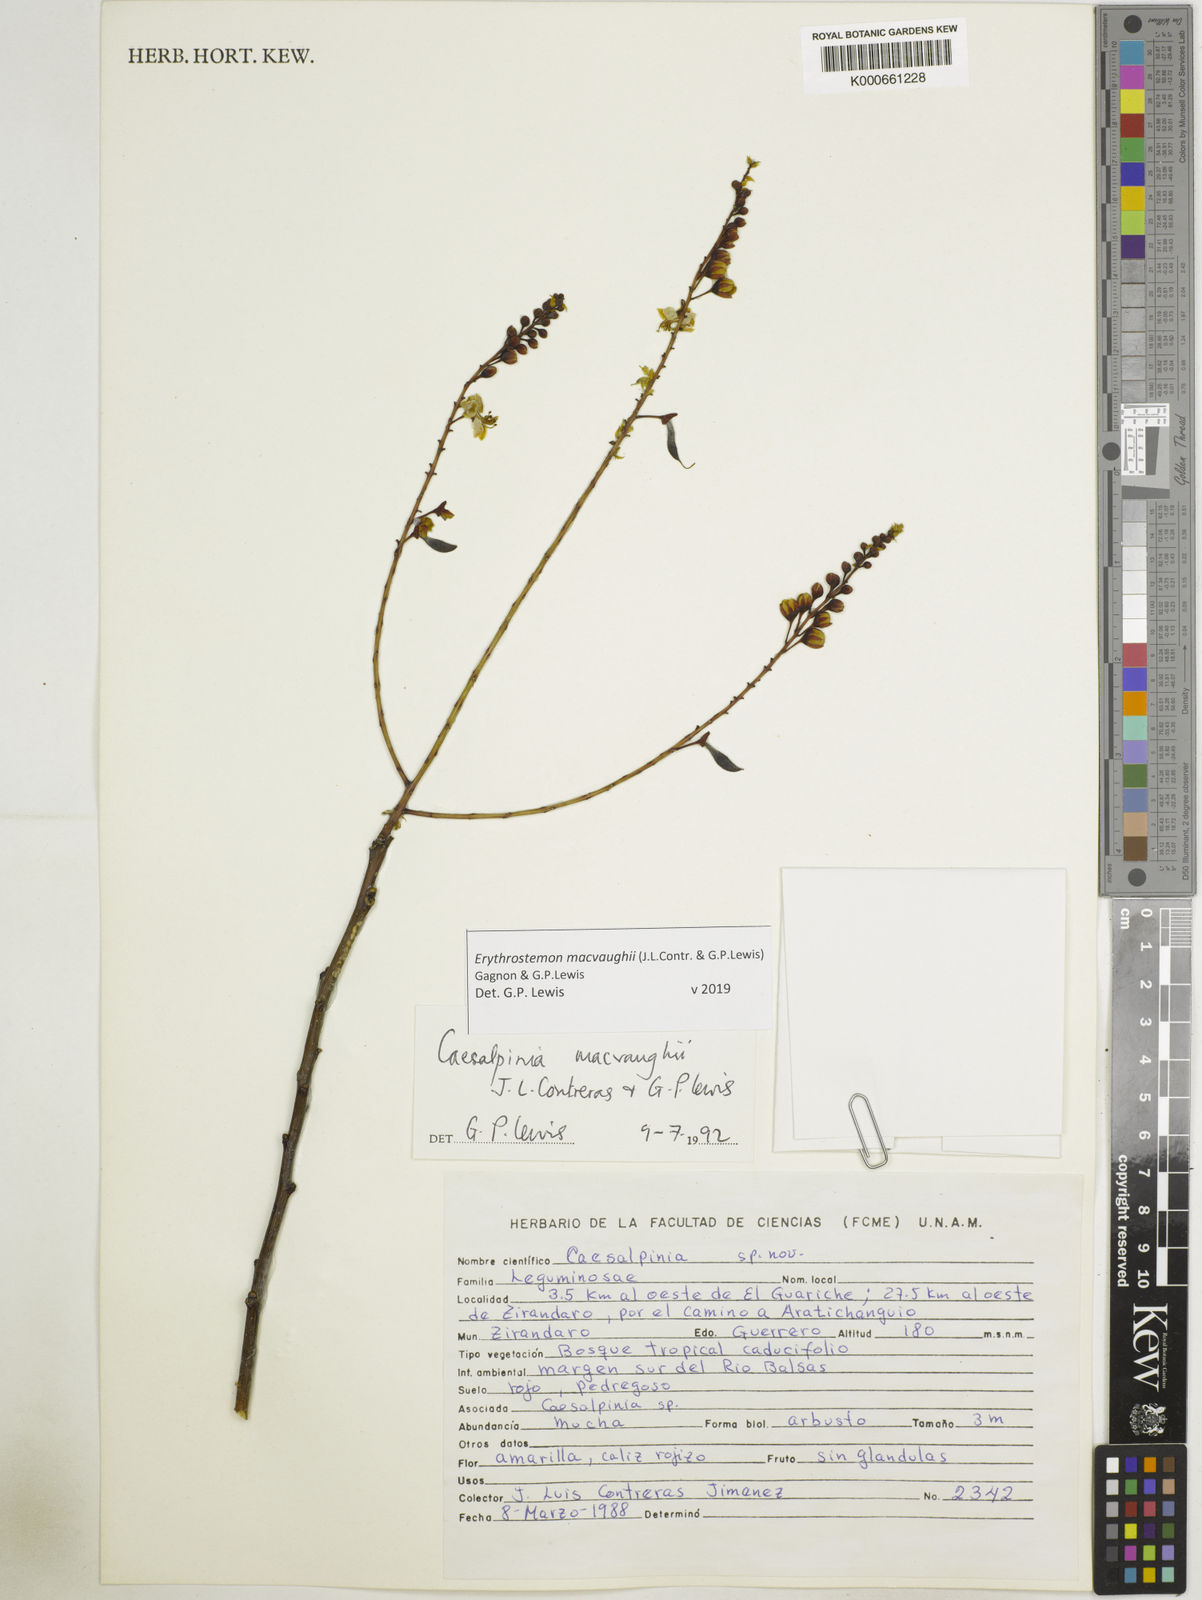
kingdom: Plantae
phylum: Tracheophyta
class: Magnoliopsida
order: Fabales
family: Fabaceae
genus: Erythrostemon
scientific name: Erythrostemon macvaughii
